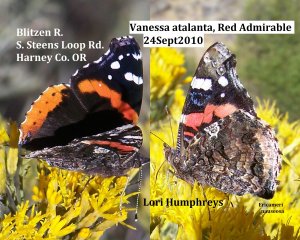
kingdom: Animalia
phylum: Arthropoda
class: Insecta
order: Lepidoptera
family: Nymphalidae
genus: Vanessa
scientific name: Vanessa atalanta
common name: Red Admiral
